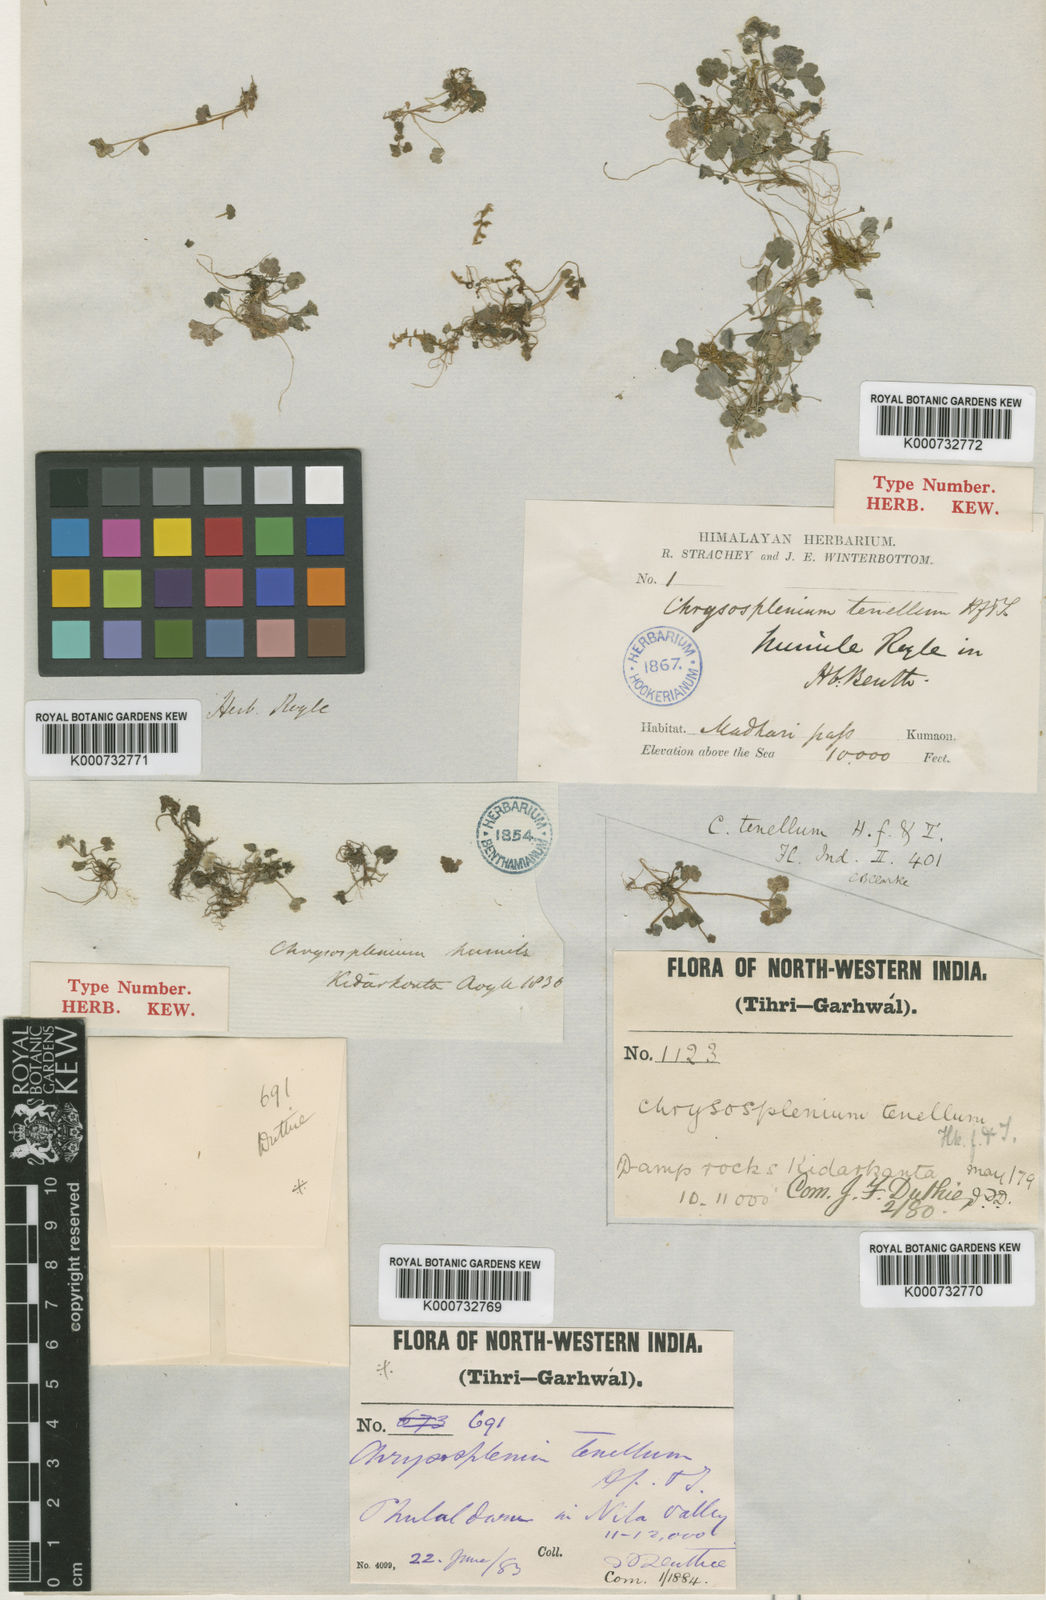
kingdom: Plantae
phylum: Tracheophyta
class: Magnoliopsida
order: Saxifragales
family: Saxifragaceae
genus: Chrysosplenium
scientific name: Chrysosplenium tenellum
